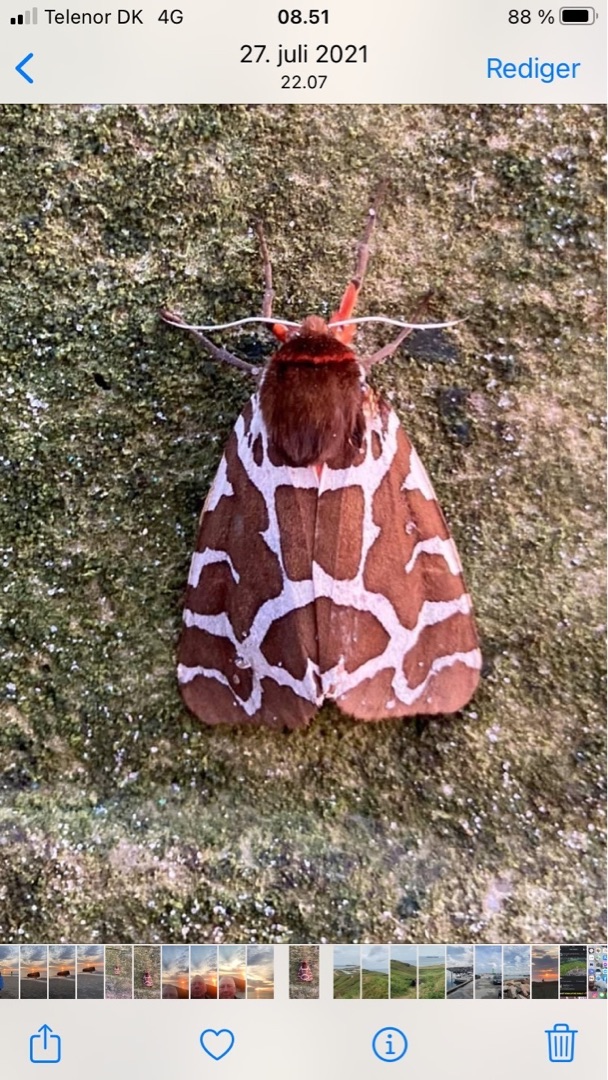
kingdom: Animalia
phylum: Arthropoda
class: Insecta
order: Lepidoptera
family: Erebidae
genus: Arctia
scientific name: Arctia caja
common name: Brun bjørn
